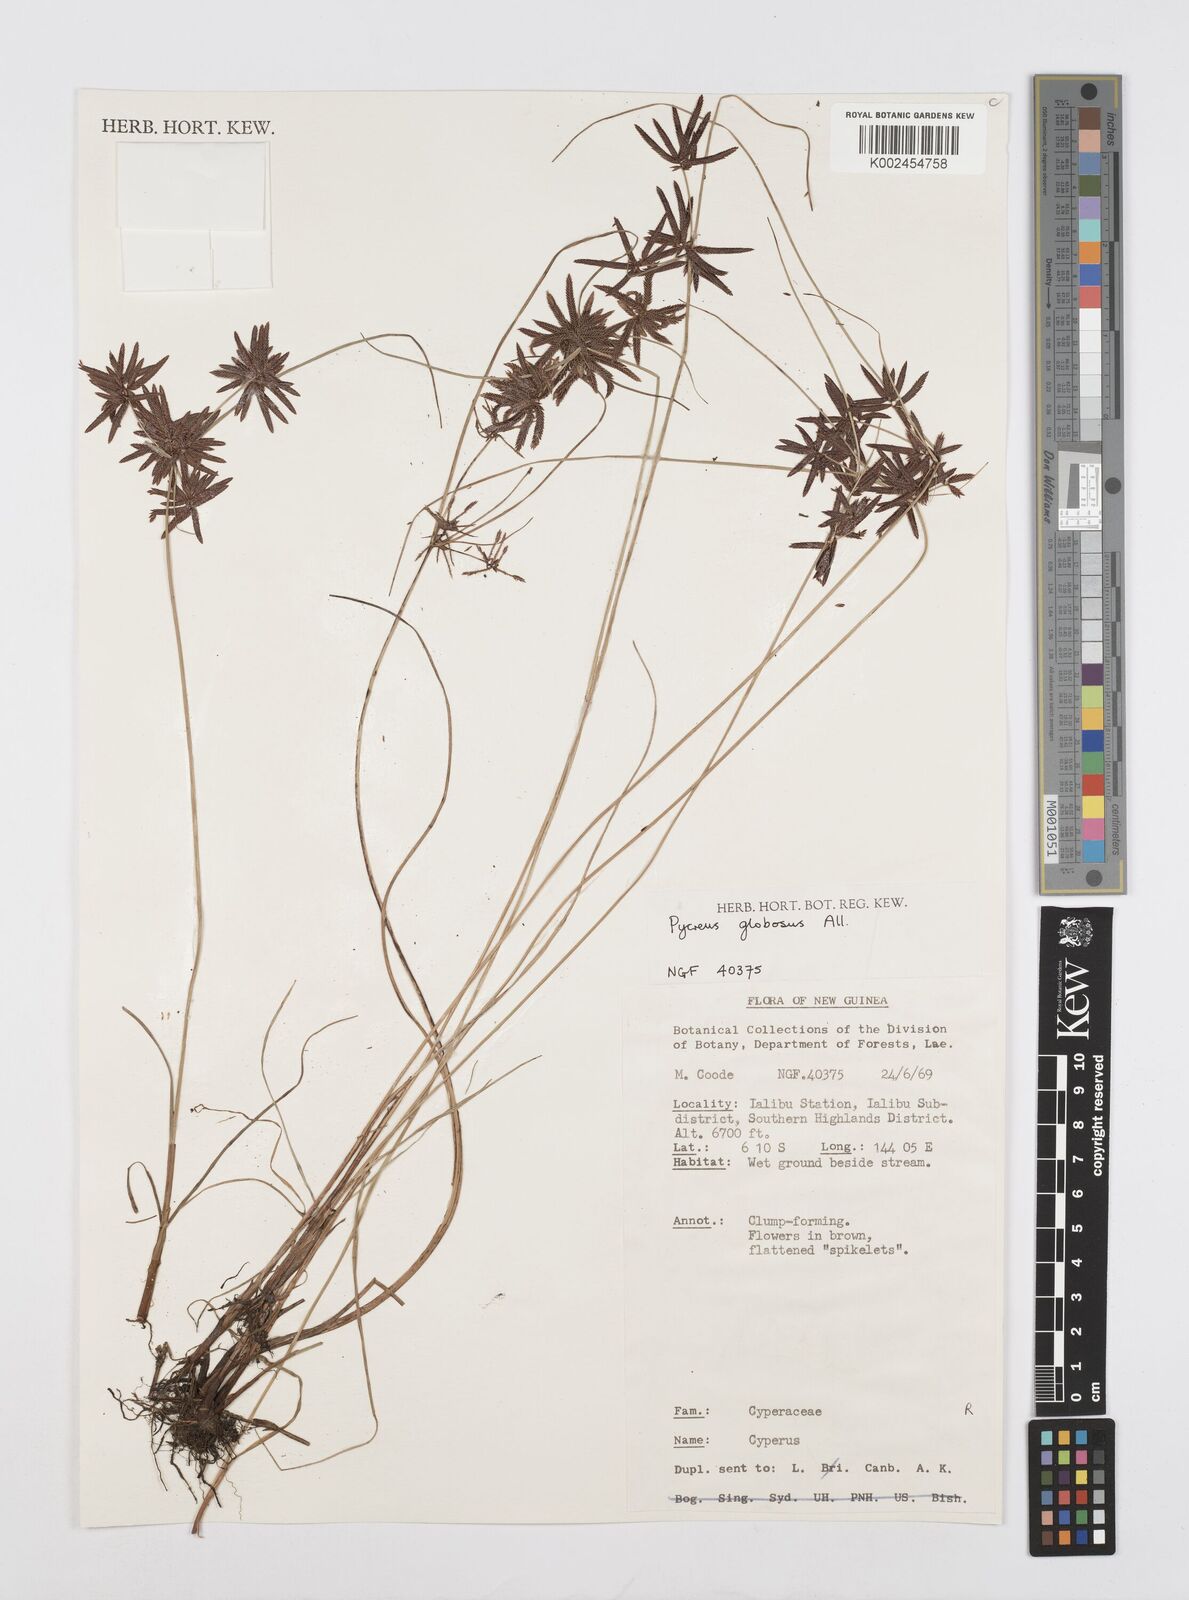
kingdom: Plantae
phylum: Tracheophyta
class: Liliopsida
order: Poales
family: Cyperaceae
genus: Cyperus
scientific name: Cyperus flavidus
